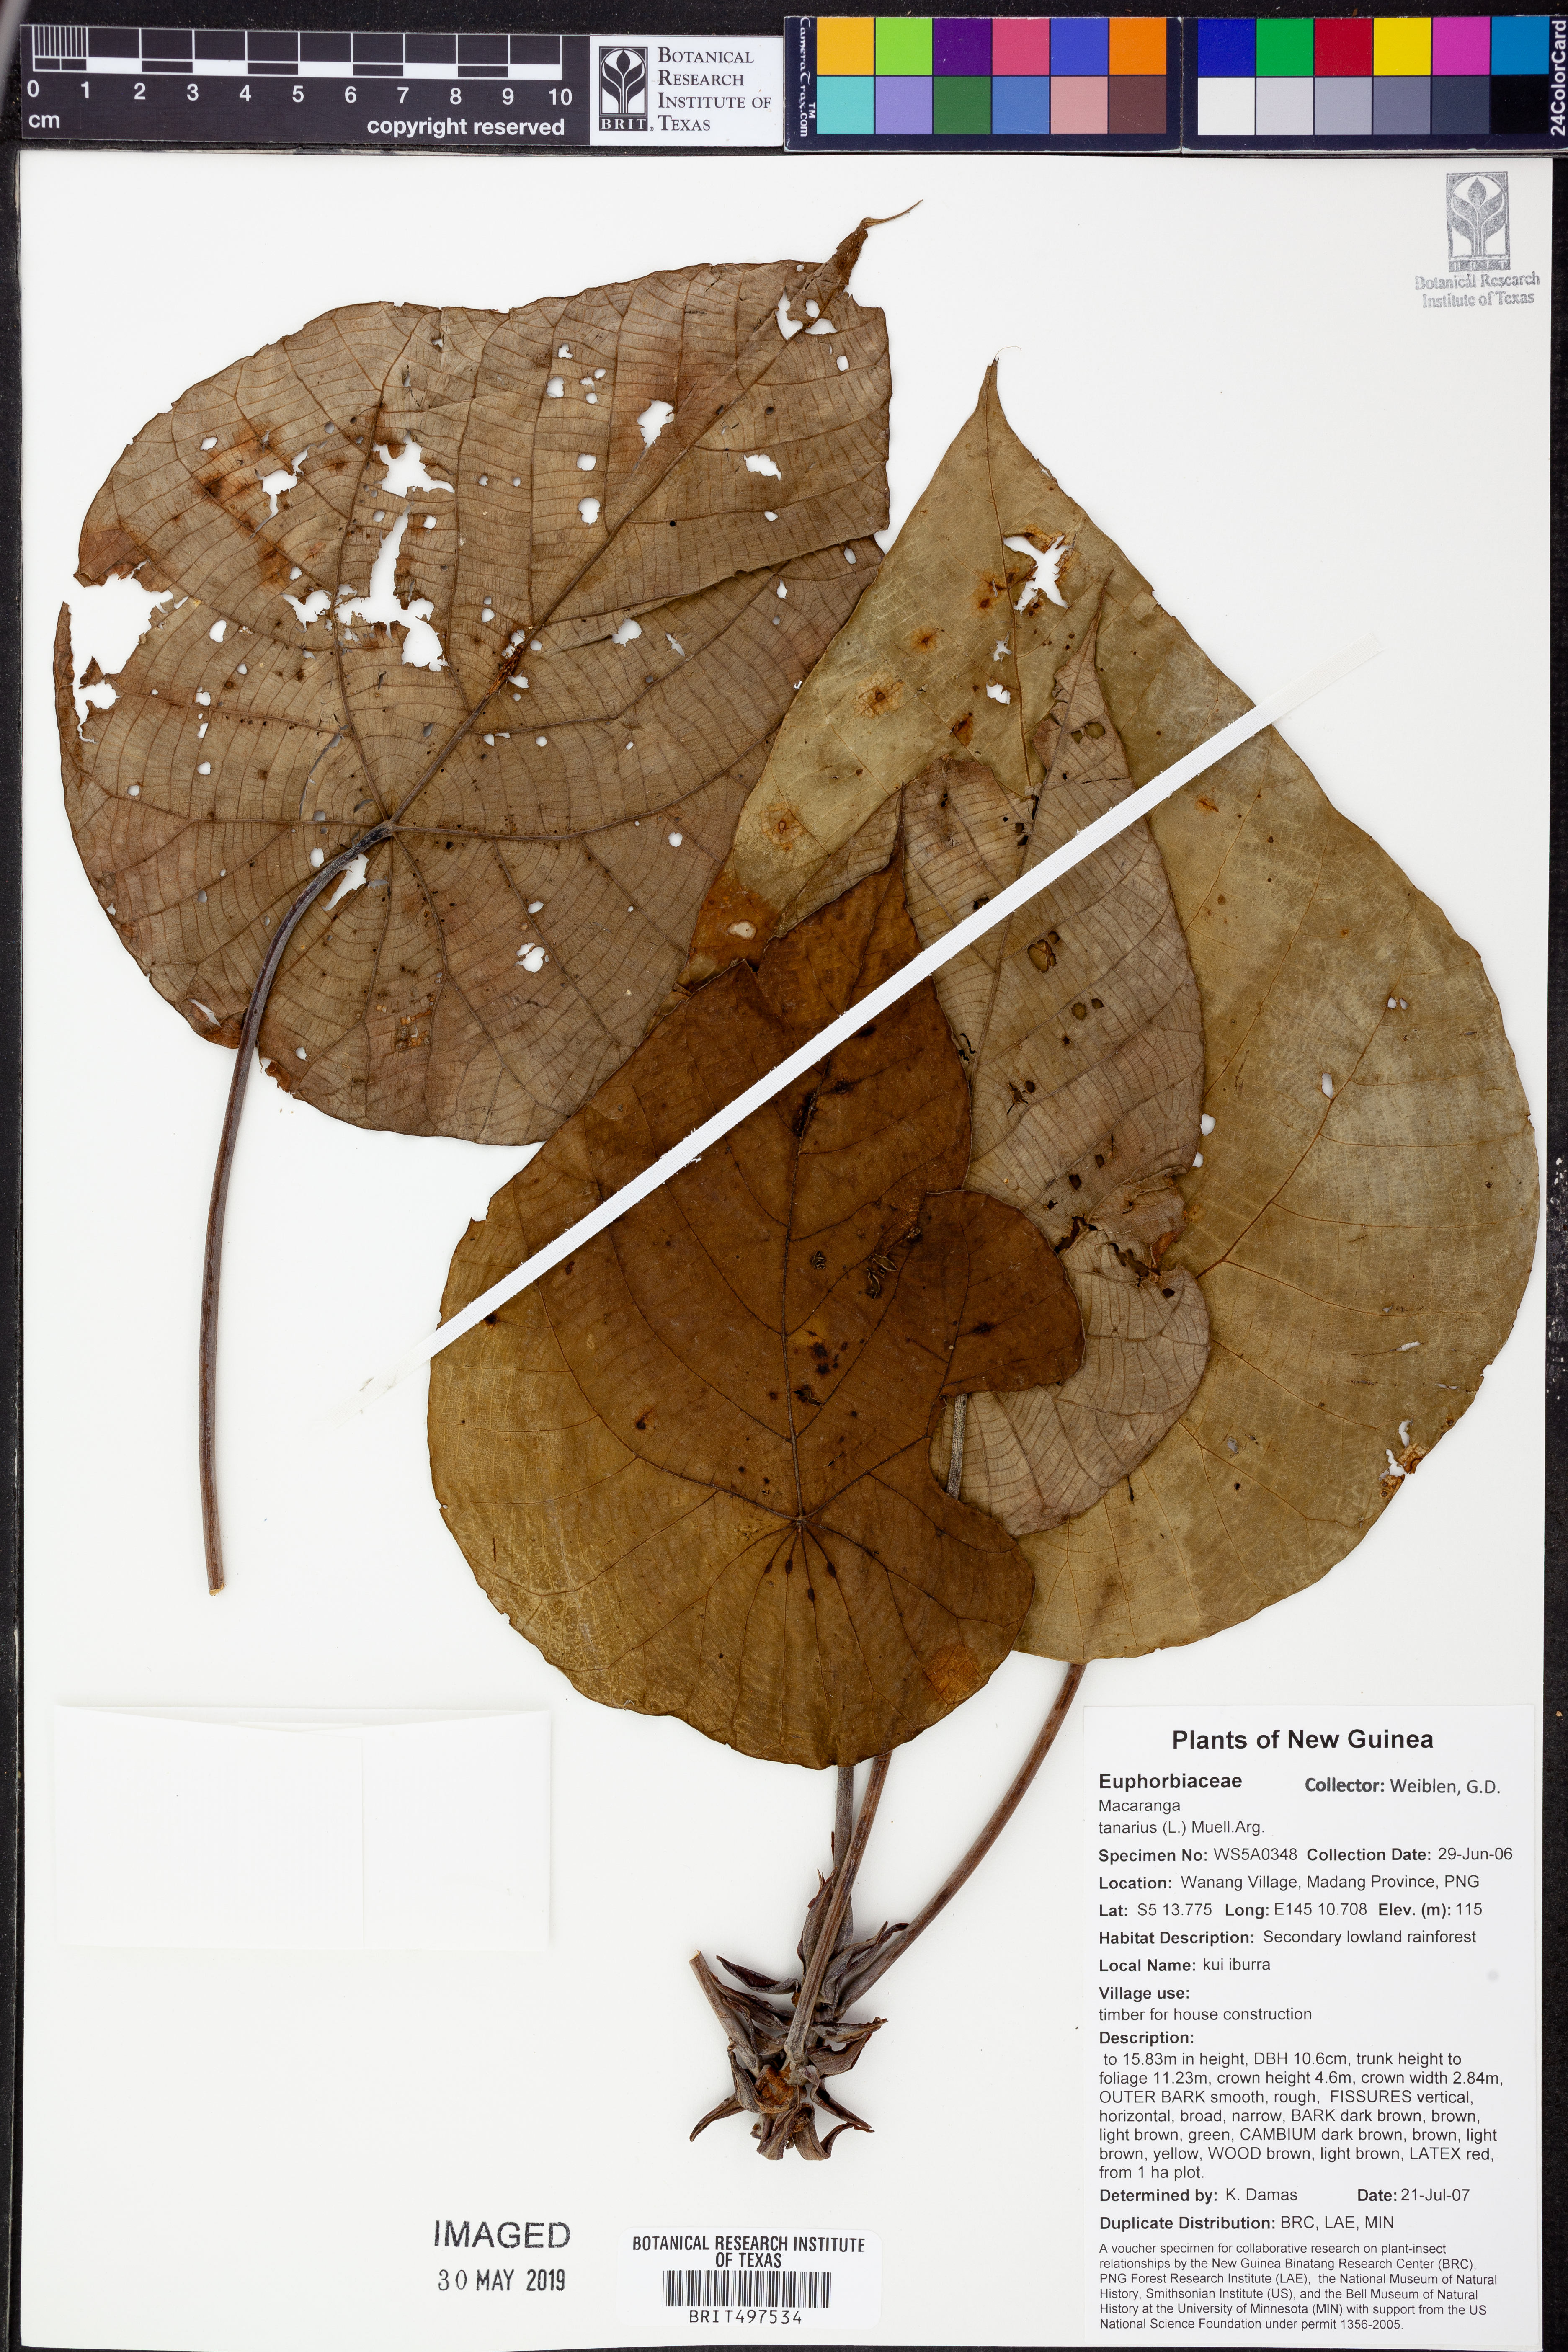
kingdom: Plantae
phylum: Tracheophyta
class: Magnoliopsida
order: Malpighiales
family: Euphorbiaceae
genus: Macaranga
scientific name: Macaranga tanarius
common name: Parasol leaf tree
